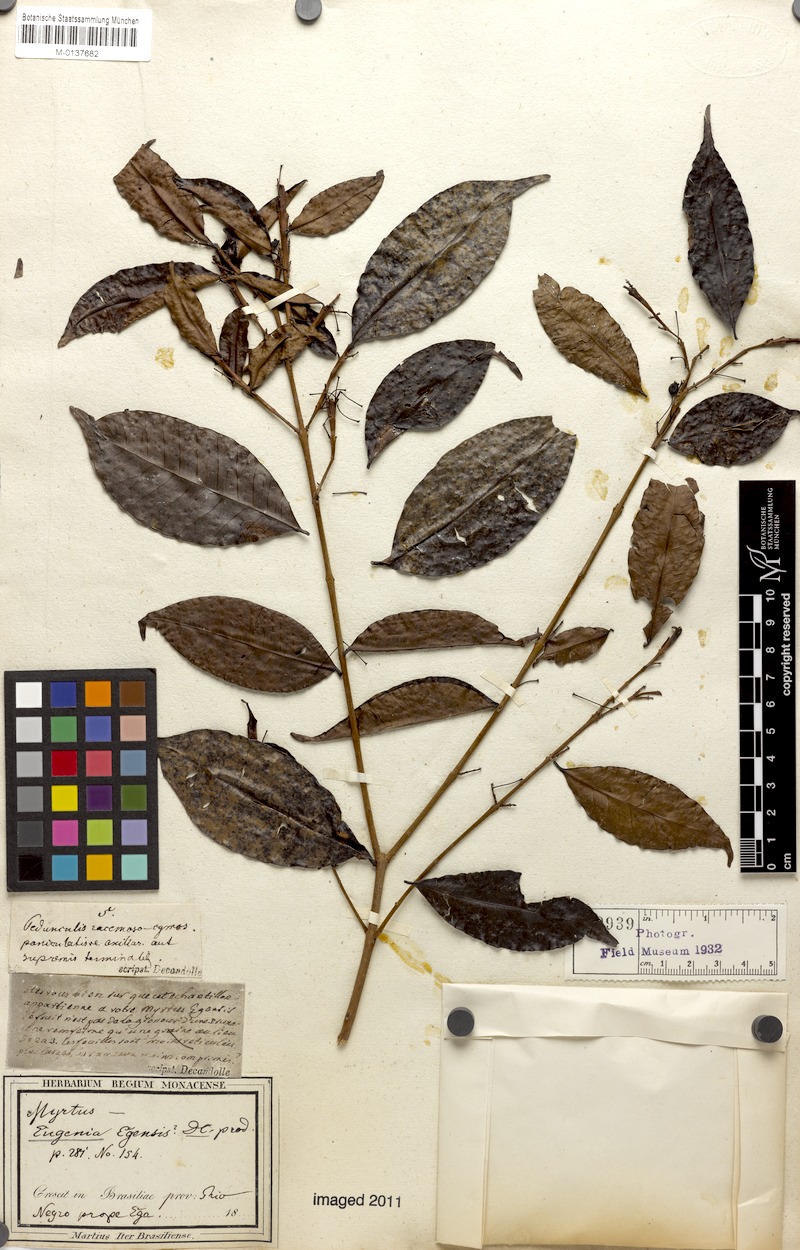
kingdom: Plantae
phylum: Tracheophyta
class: Magnoliopsida
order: Myrtales
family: Myrtaceae
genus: Eugenia
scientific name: Eugenia egensis
